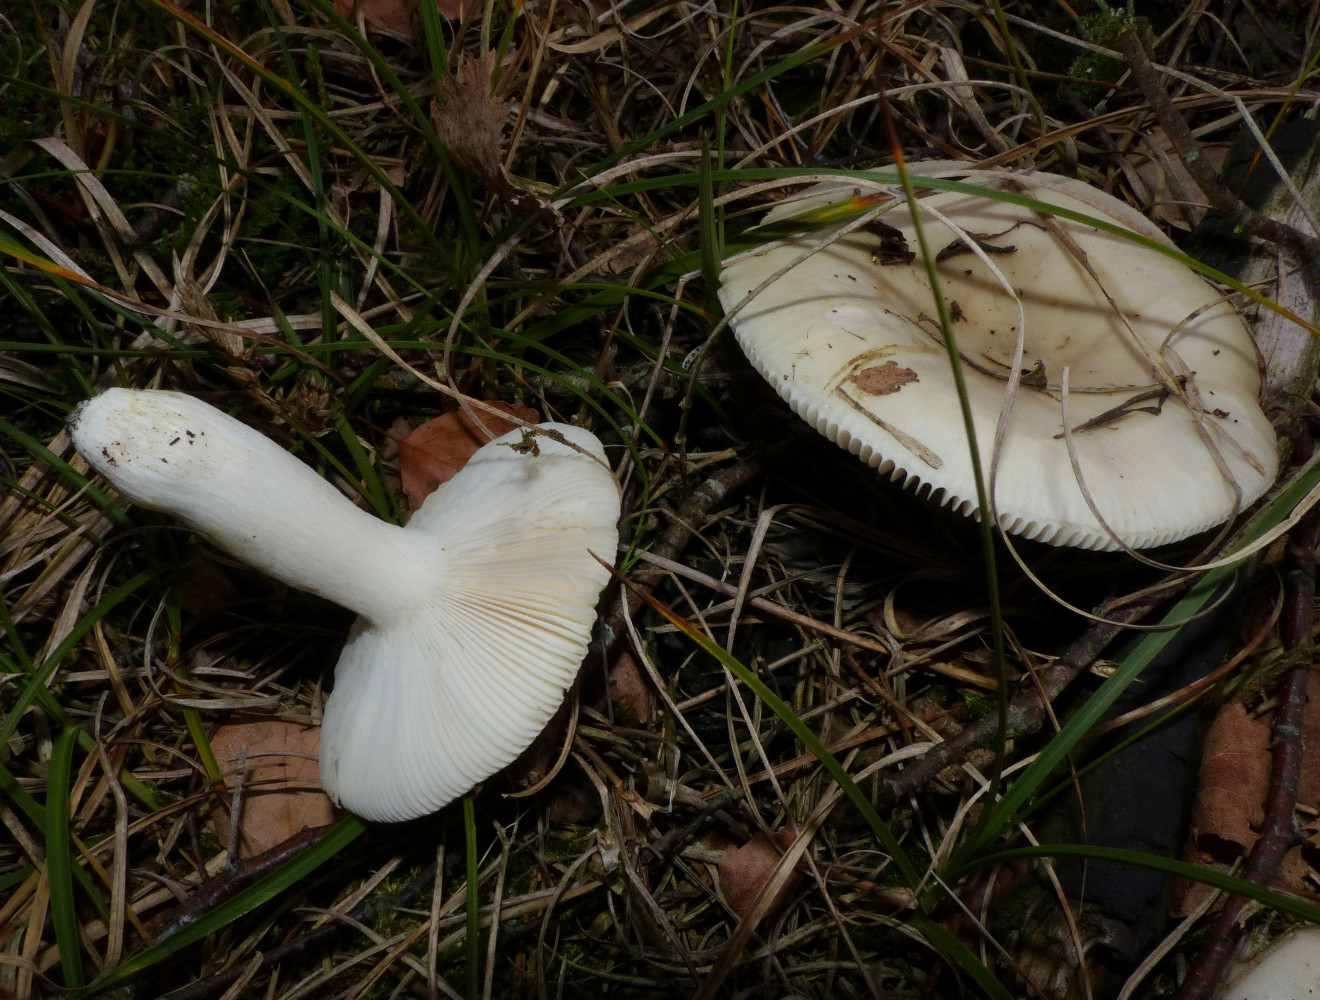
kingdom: Fungi
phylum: Basidiomycota
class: Agaricomycetes
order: Russulales
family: Russulaceae
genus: Russula
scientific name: Russula aeruginea
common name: græsgrøn skørhat
